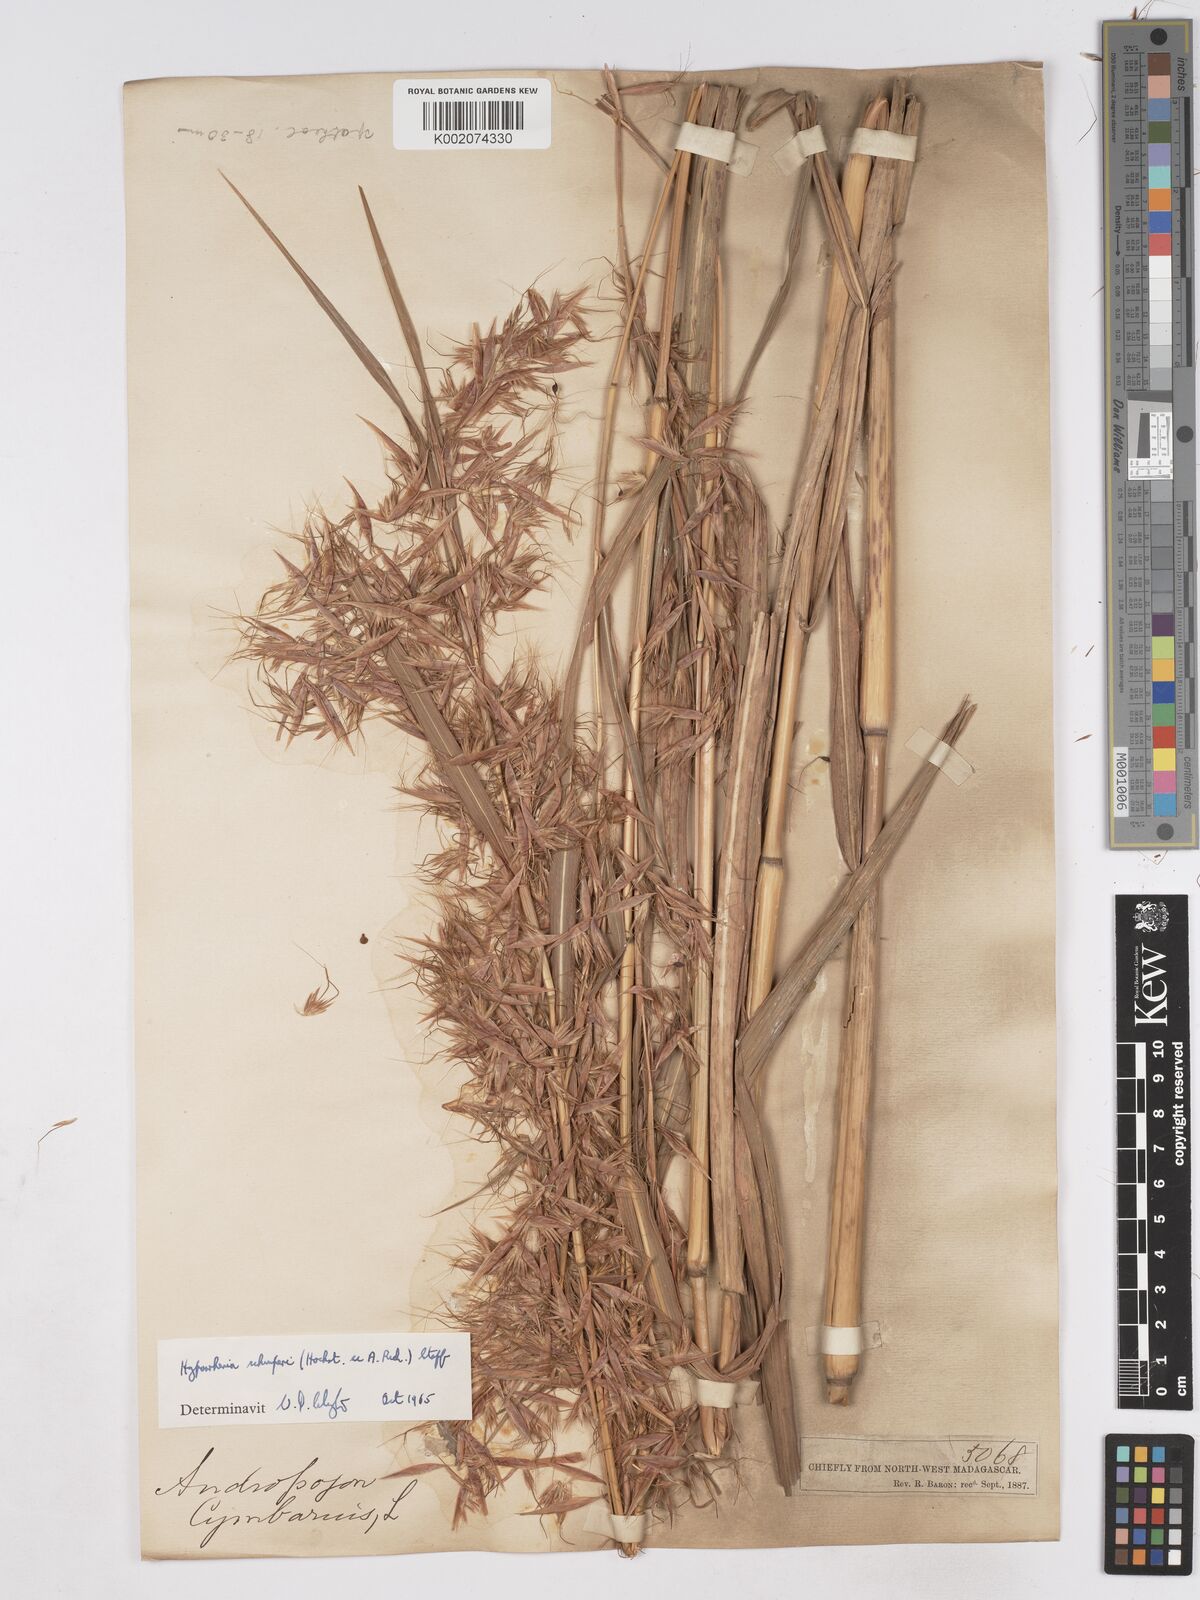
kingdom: Plantae
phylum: Tracheophyta
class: Liliopsida
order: Poales
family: Poaceae
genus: Hyparrhenia
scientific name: Hyparrhenia variabilis
